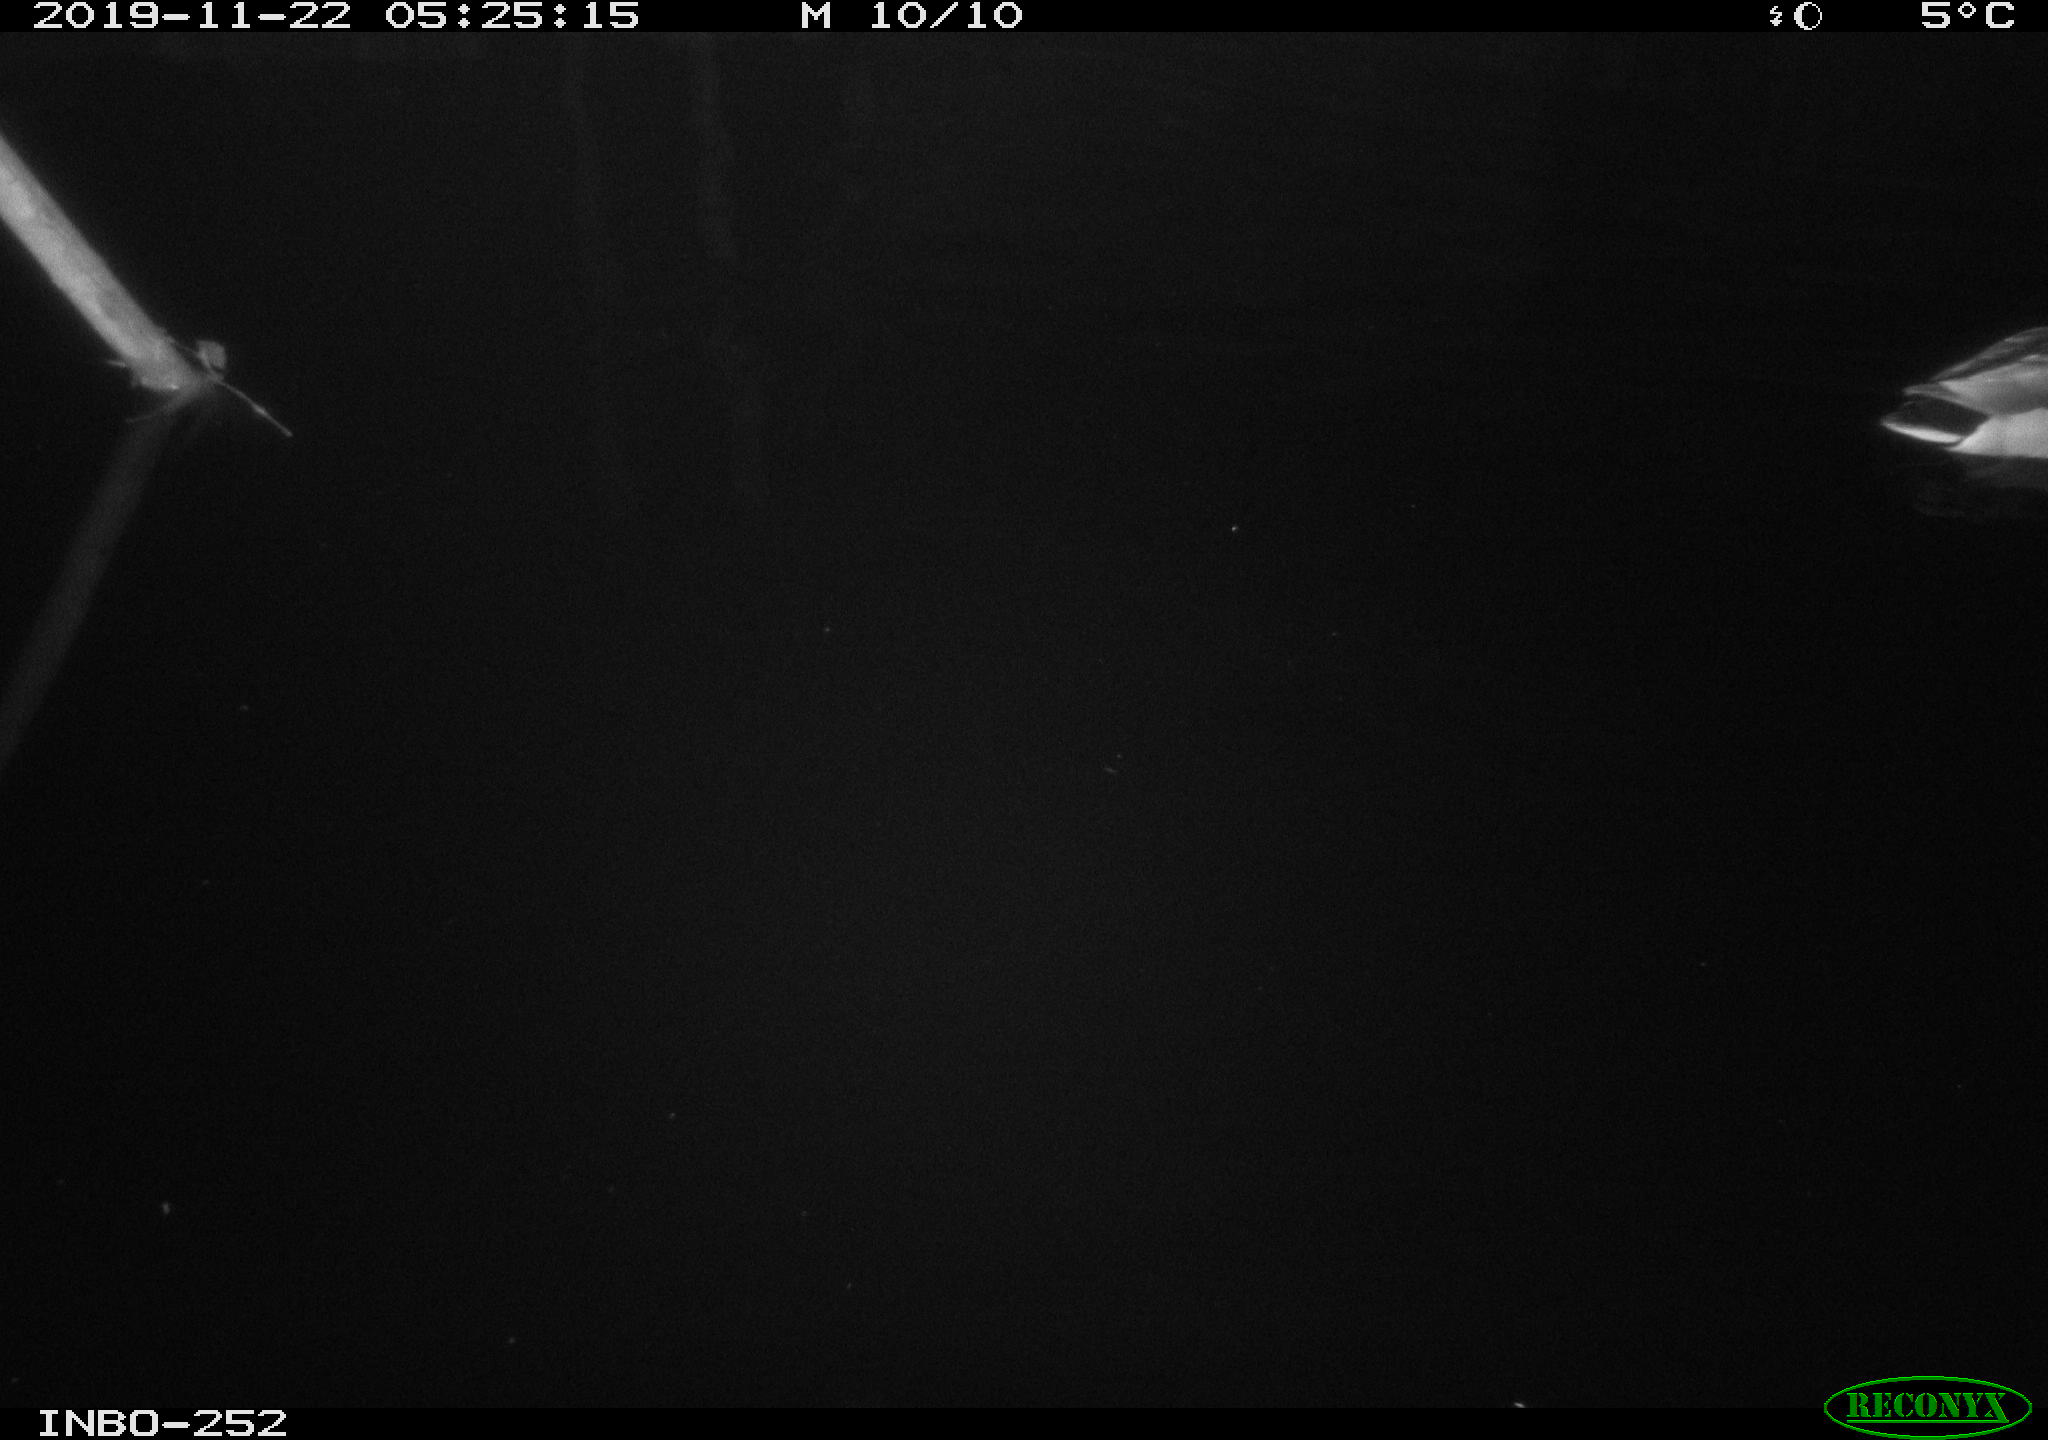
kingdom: Animalia
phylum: Chordata
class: Aves
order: Anseriformes
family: Anatidae
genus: Anas
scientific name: Anas platyrhynchos
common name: Mallard
